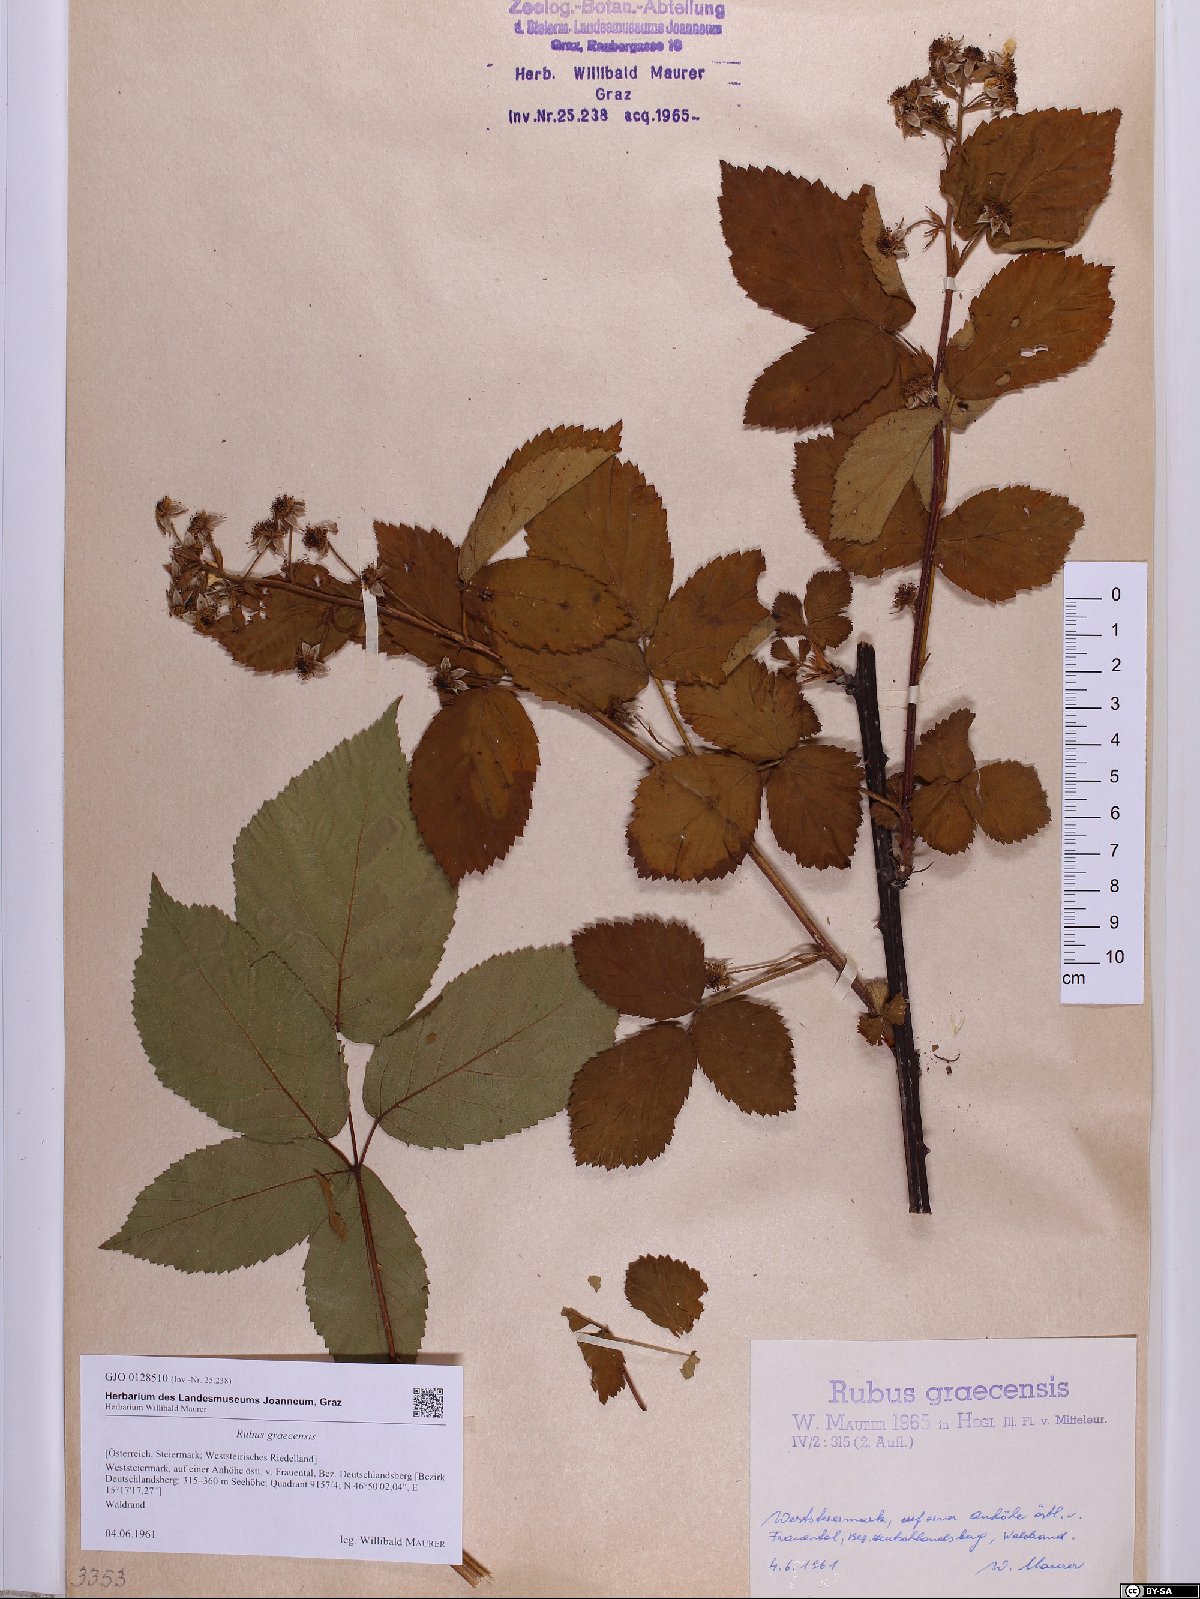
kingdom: Plantae
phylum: Tracheophyta
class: Magnoliopsida
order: Rosales
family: Rosaceae
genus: Rubus
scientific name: Rubus graecensis
